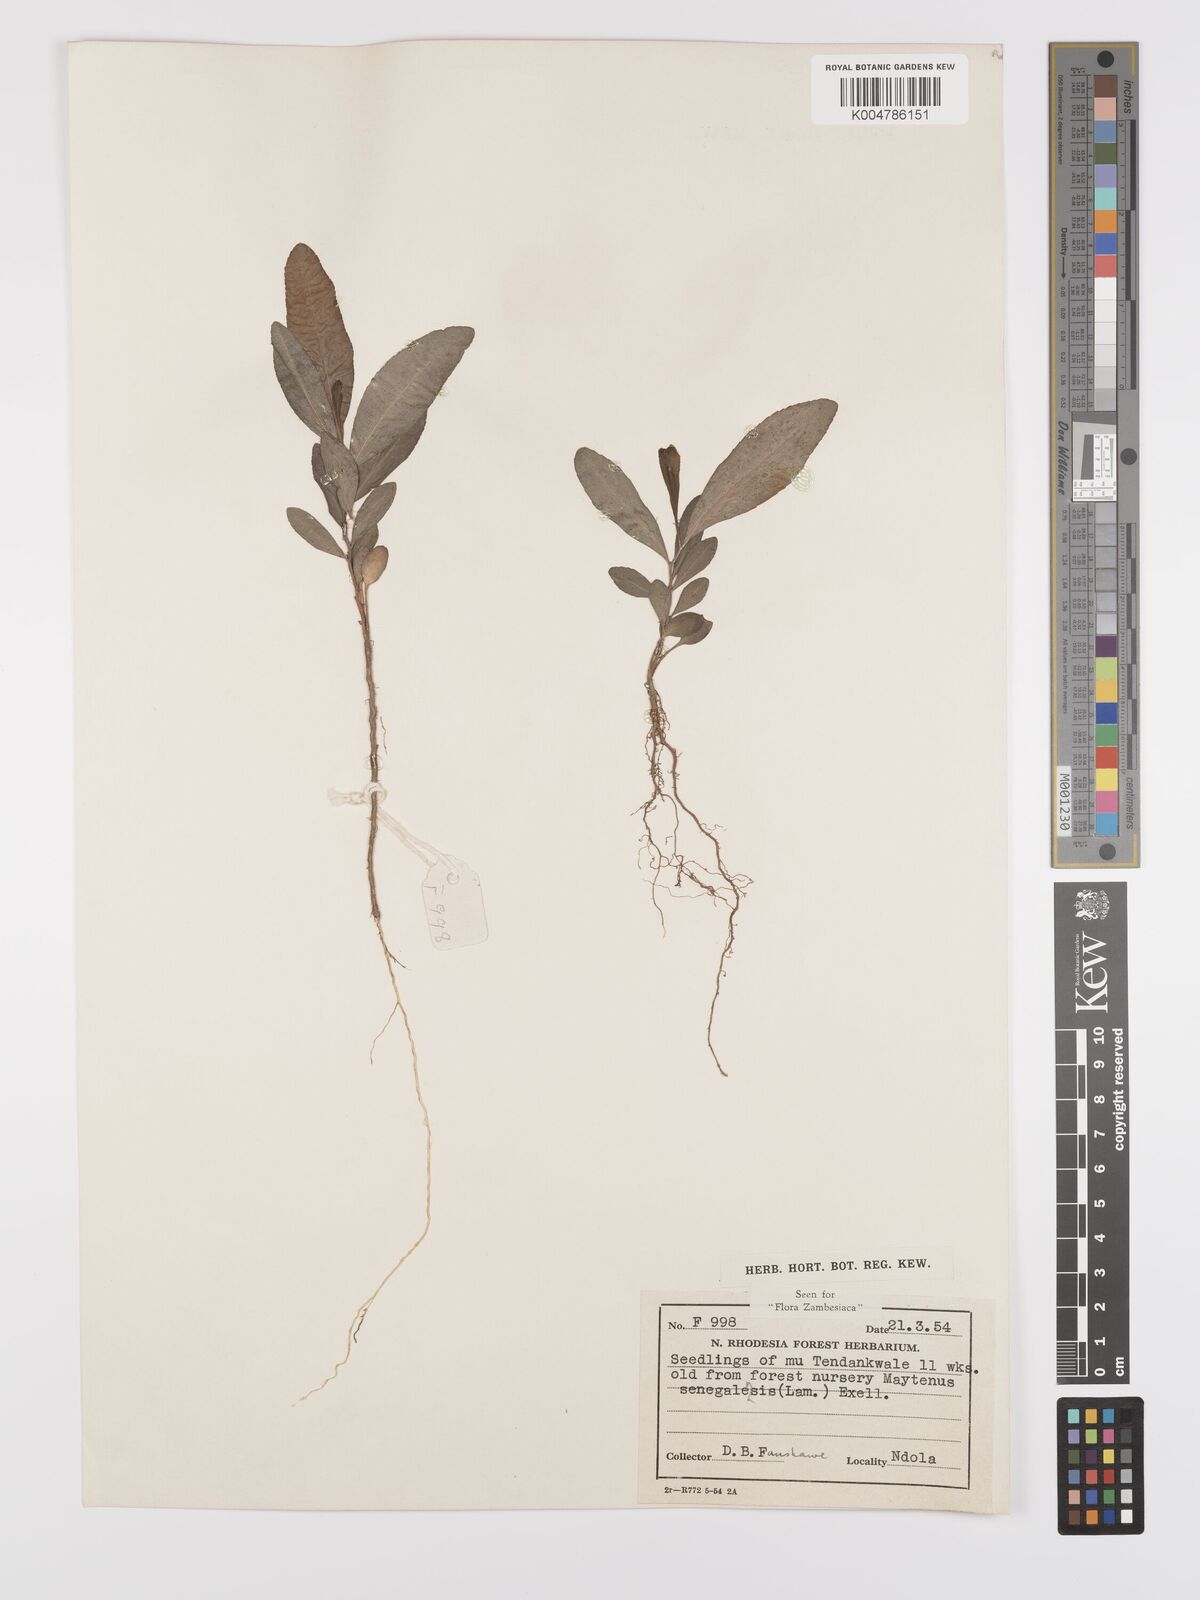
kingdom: Plantae
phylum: Tracheophyta
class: Magnoliopsida
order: Celastrales
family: Celastraceae
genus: Gymnosporia
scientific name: Gymnosporia senegalensis
